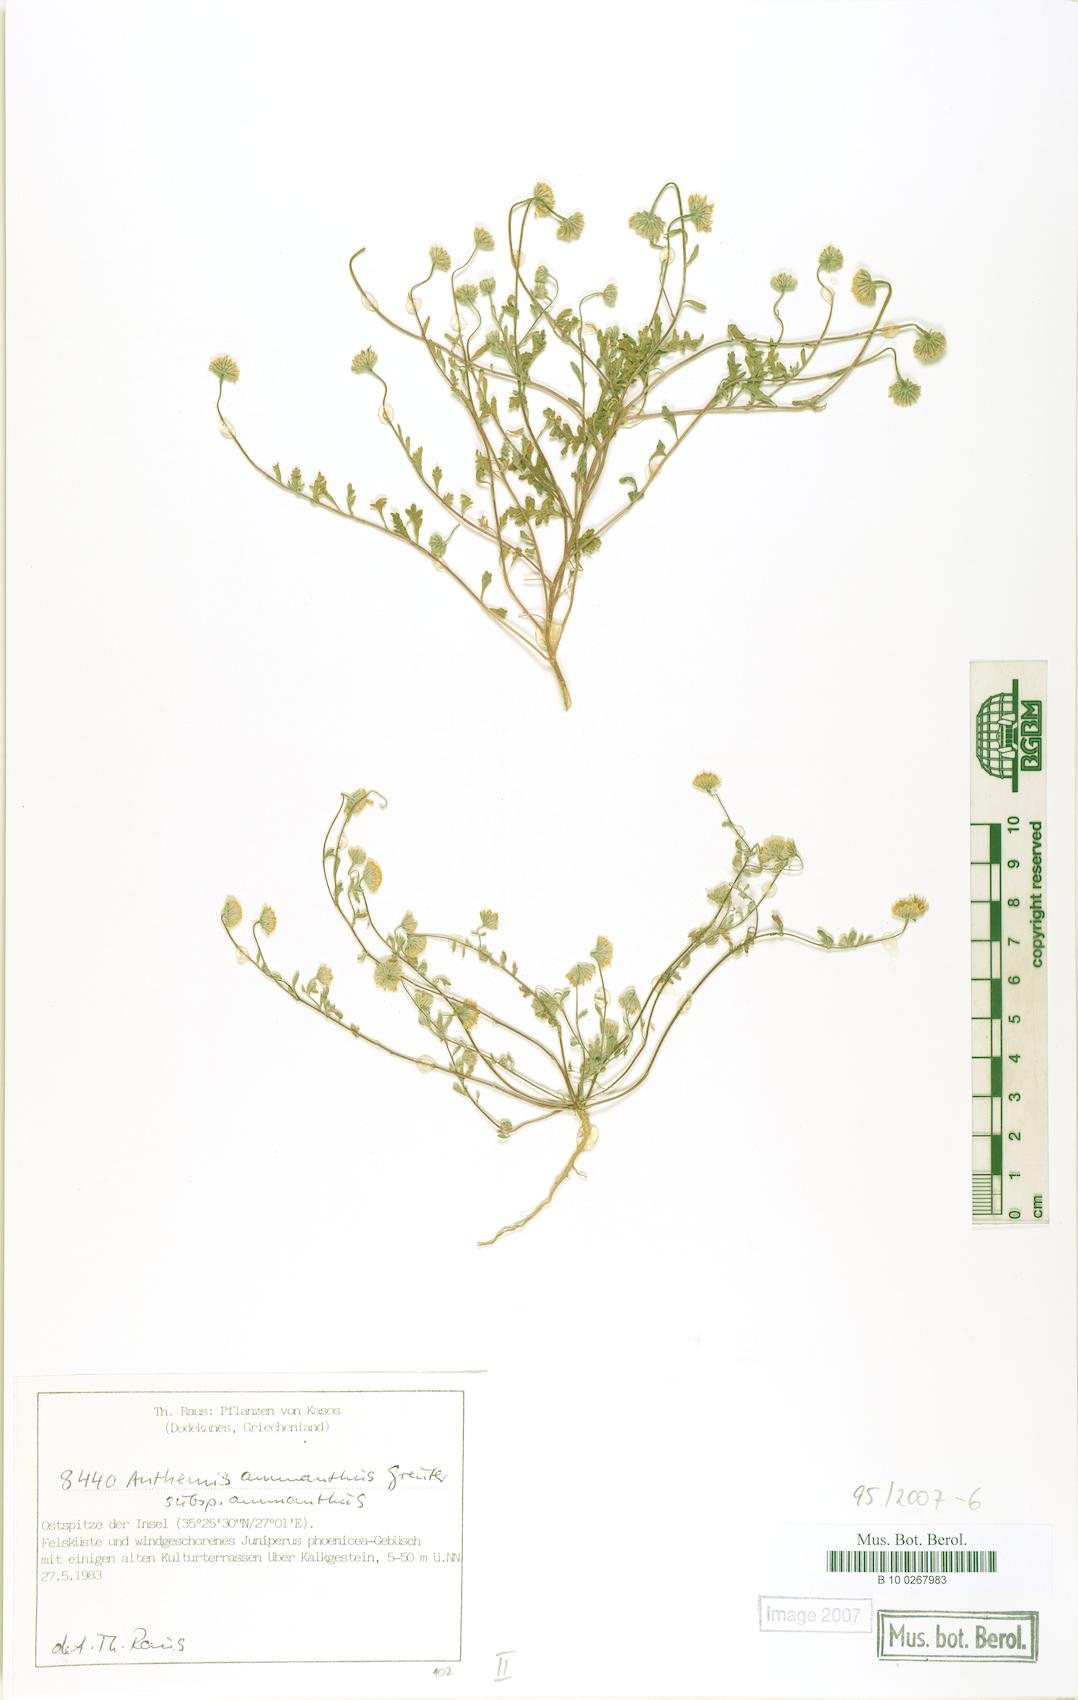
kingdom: Plantae
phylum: Tracheophyta
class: Magnoliopsida
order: Asterales
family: Asteraceae
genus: Anthemis
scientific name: Anthemis ammanthus
